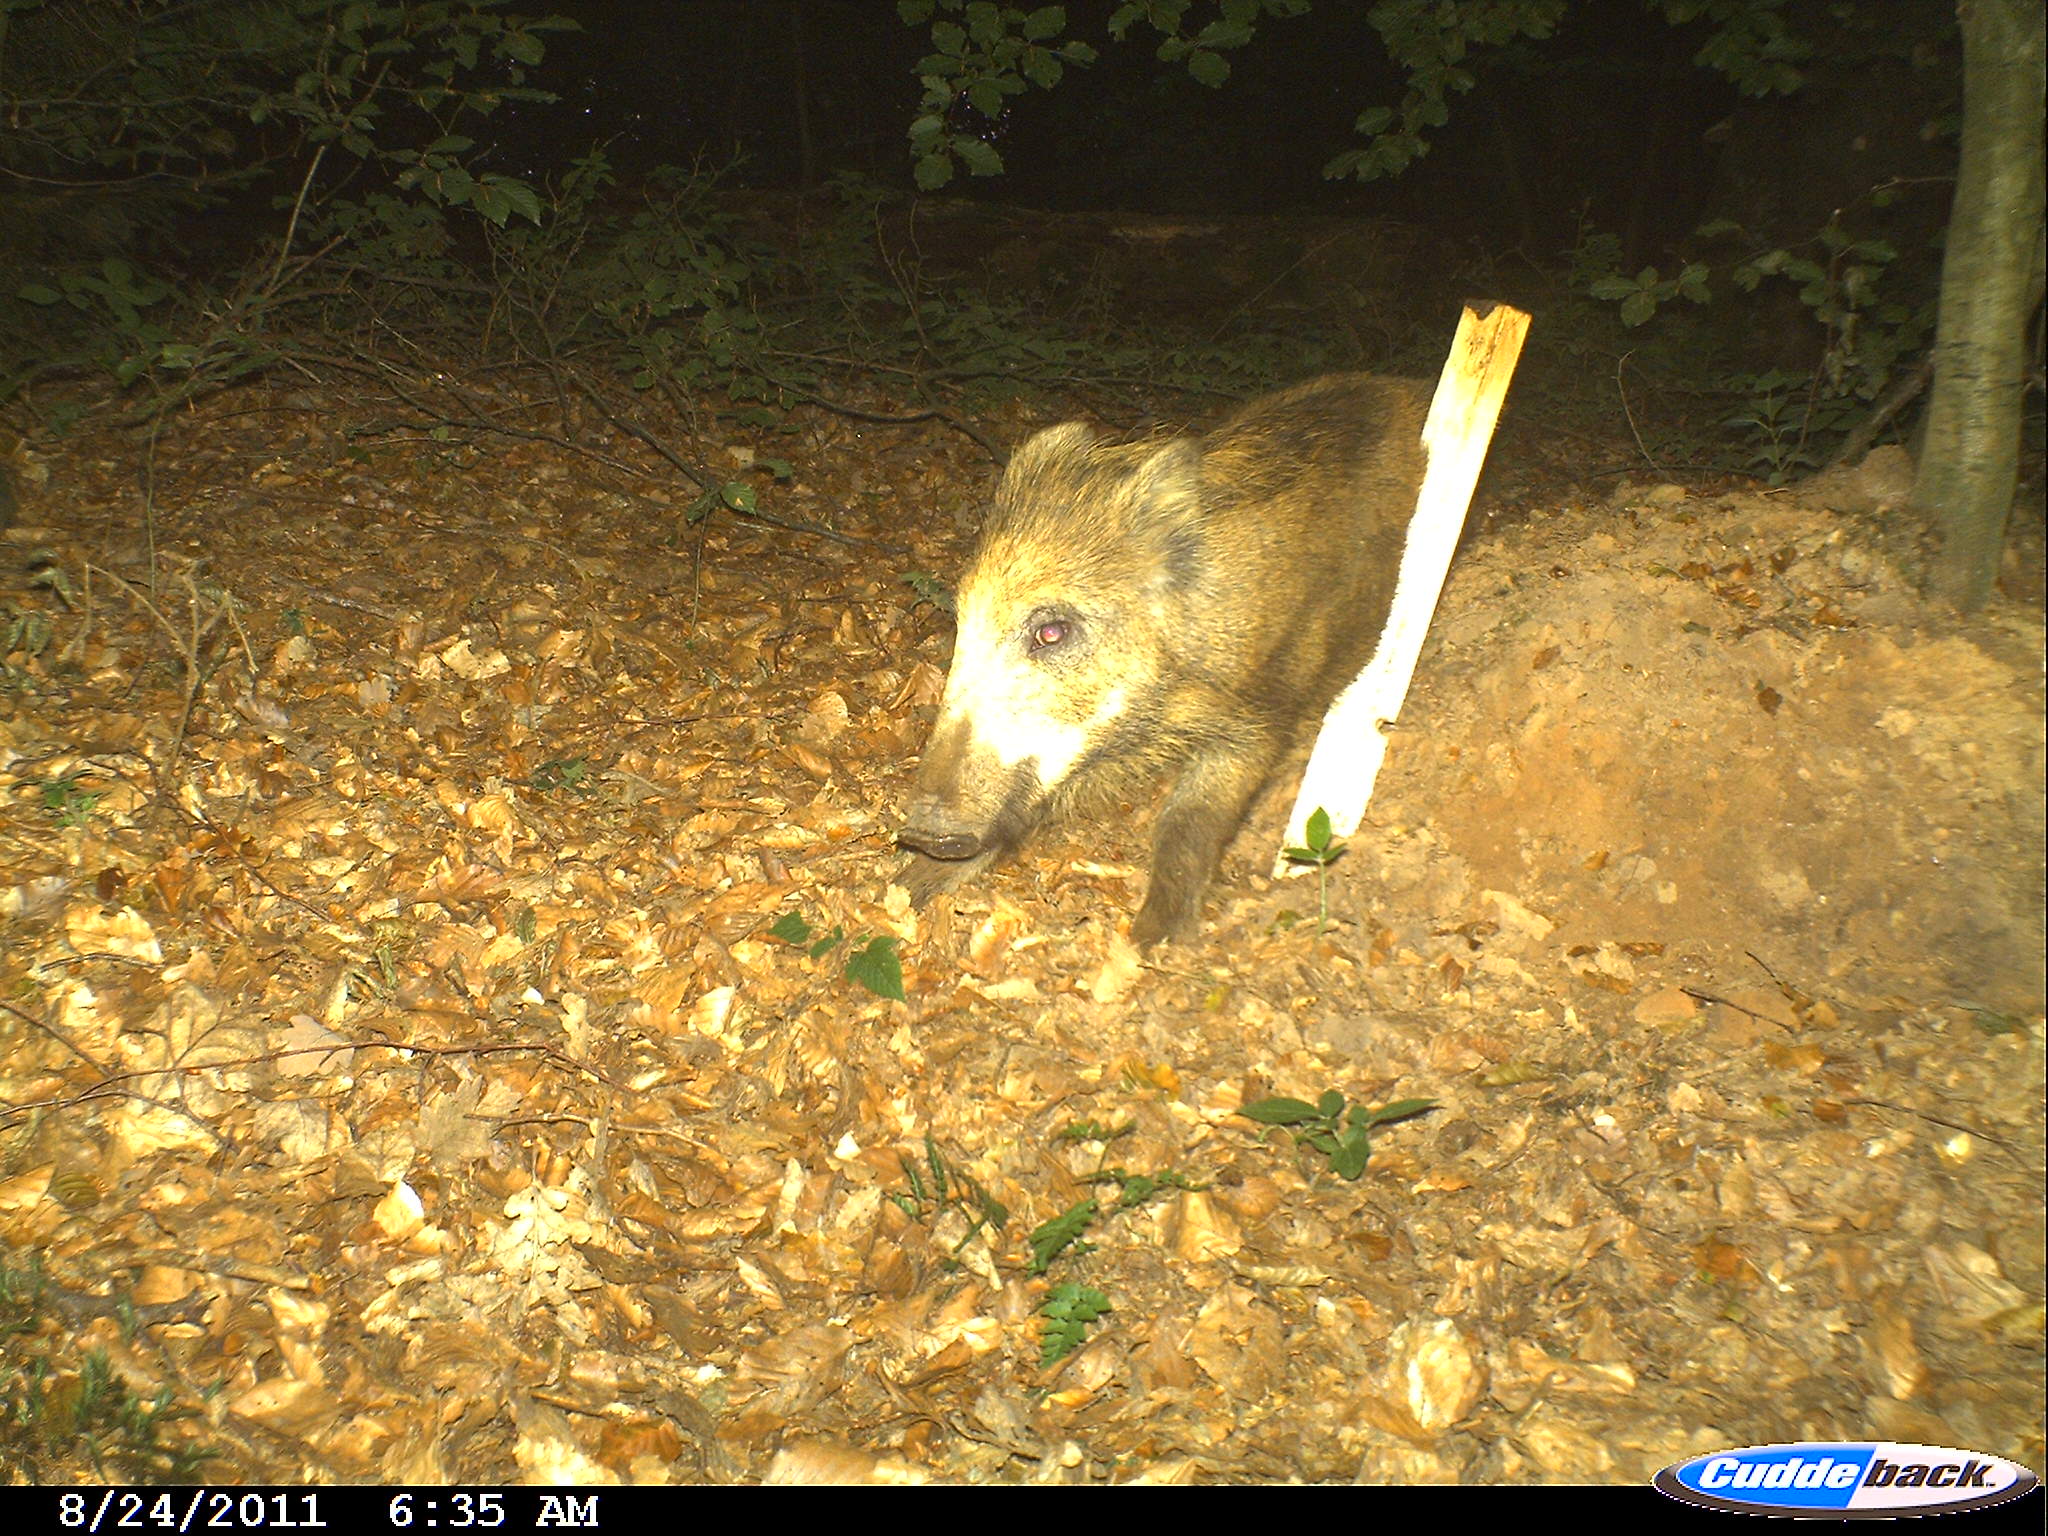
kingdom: Animalia
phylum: Chordata
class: Mammalia
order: Artiodactyla
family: Suidae
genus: Sus
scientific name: Sus scrofa
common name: Wild boar
